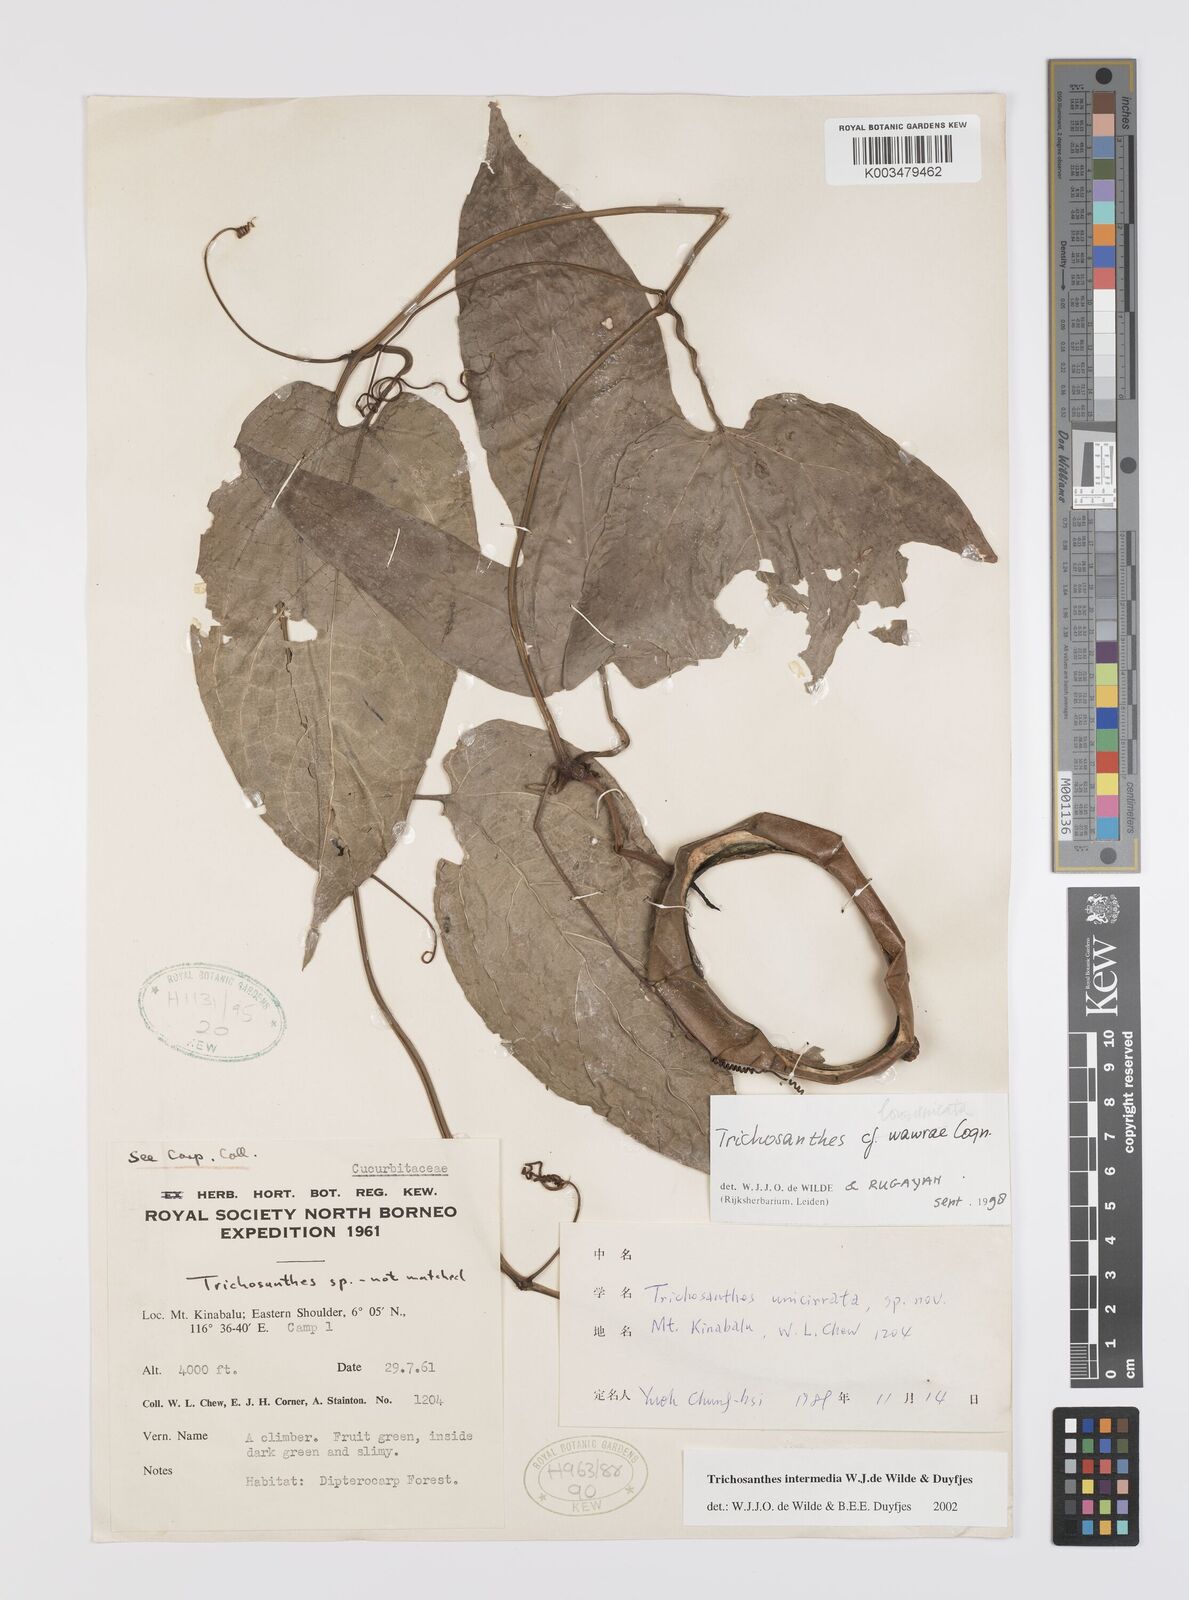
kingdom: Plantae
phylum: Tracheophyta
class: Magnoliopsida
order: Cucurbitales
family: Cucurbitaceae
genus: Trichosanthes
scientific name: Trichosanthes intermedia
